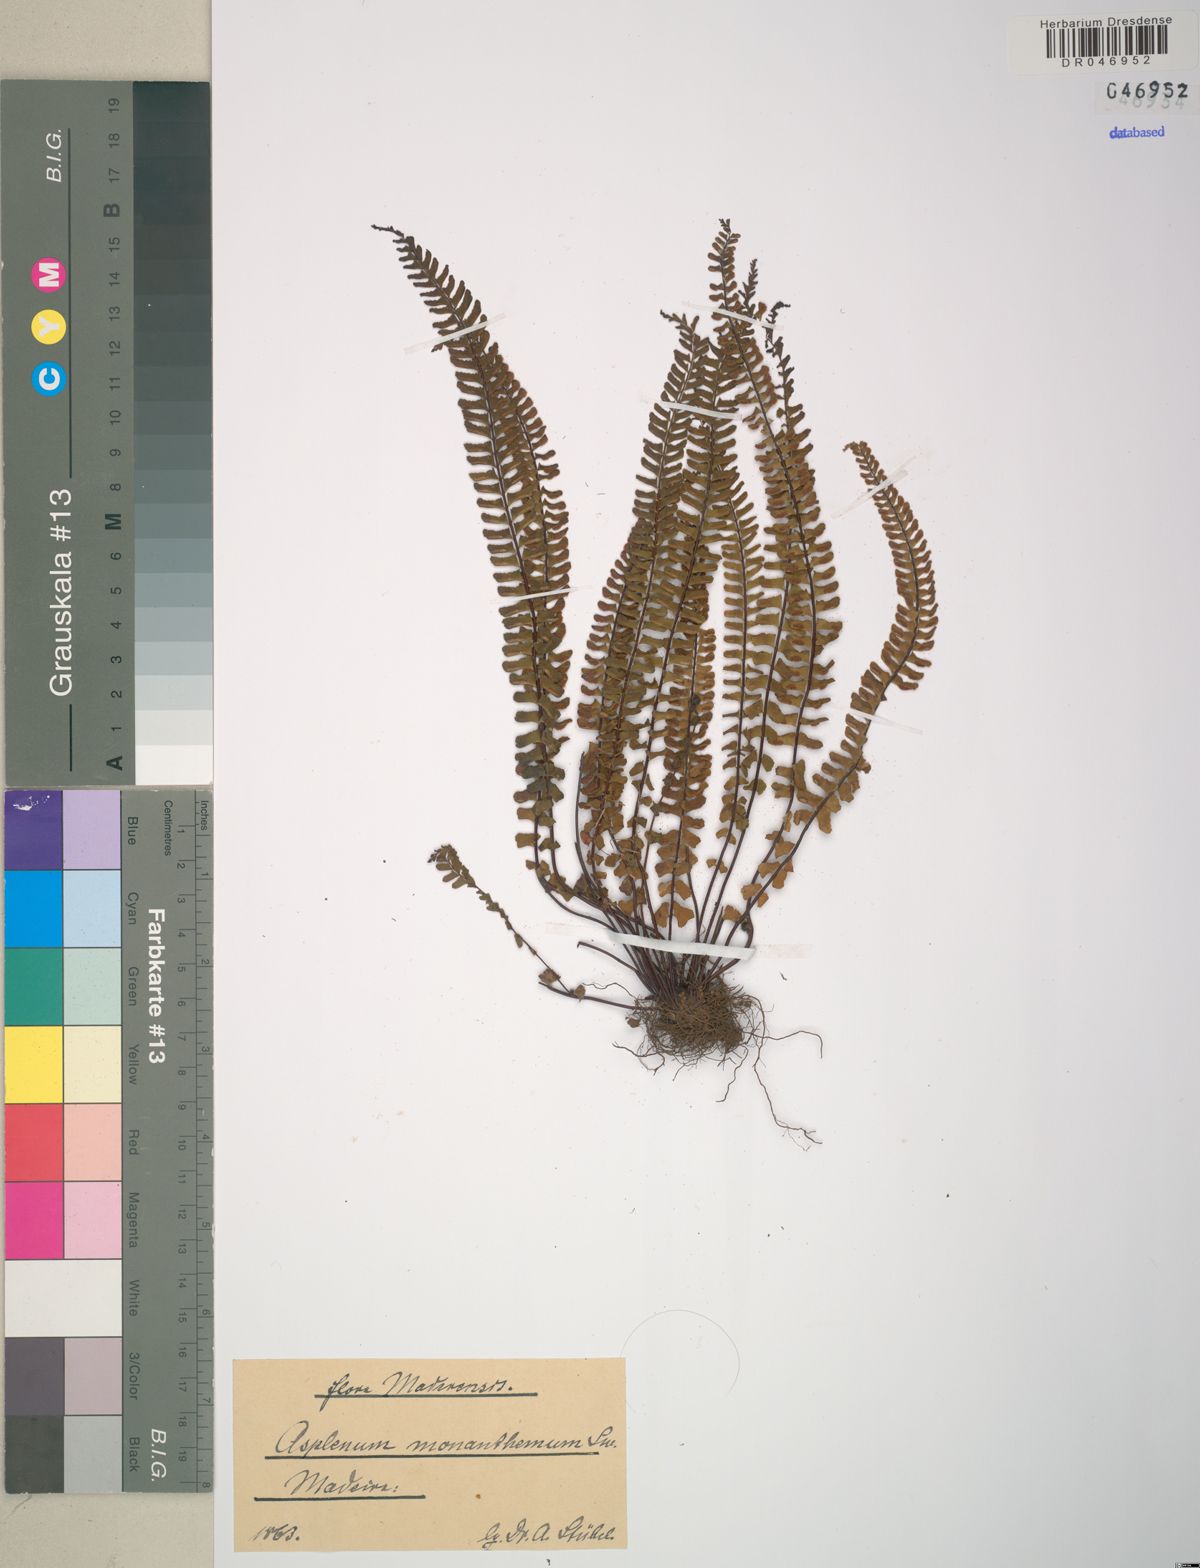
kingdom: Plantae
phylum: Tracheophyta
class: Polypodiopsida
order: Polypodiales
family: Aspleniaceae
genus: Asplenium
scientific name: Asplenium monanthes
